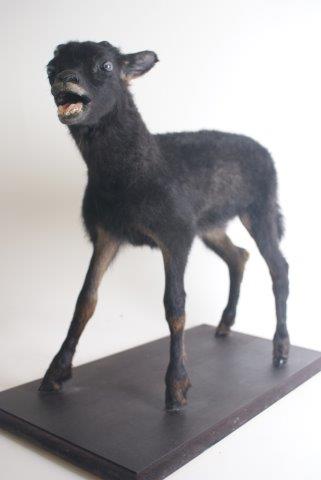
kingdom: Animalia
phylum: Chordata
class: Mammalia
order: Artiodactyla
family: Bovidae
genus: Ovis
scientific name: Ovis aries
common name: Red Sheep
